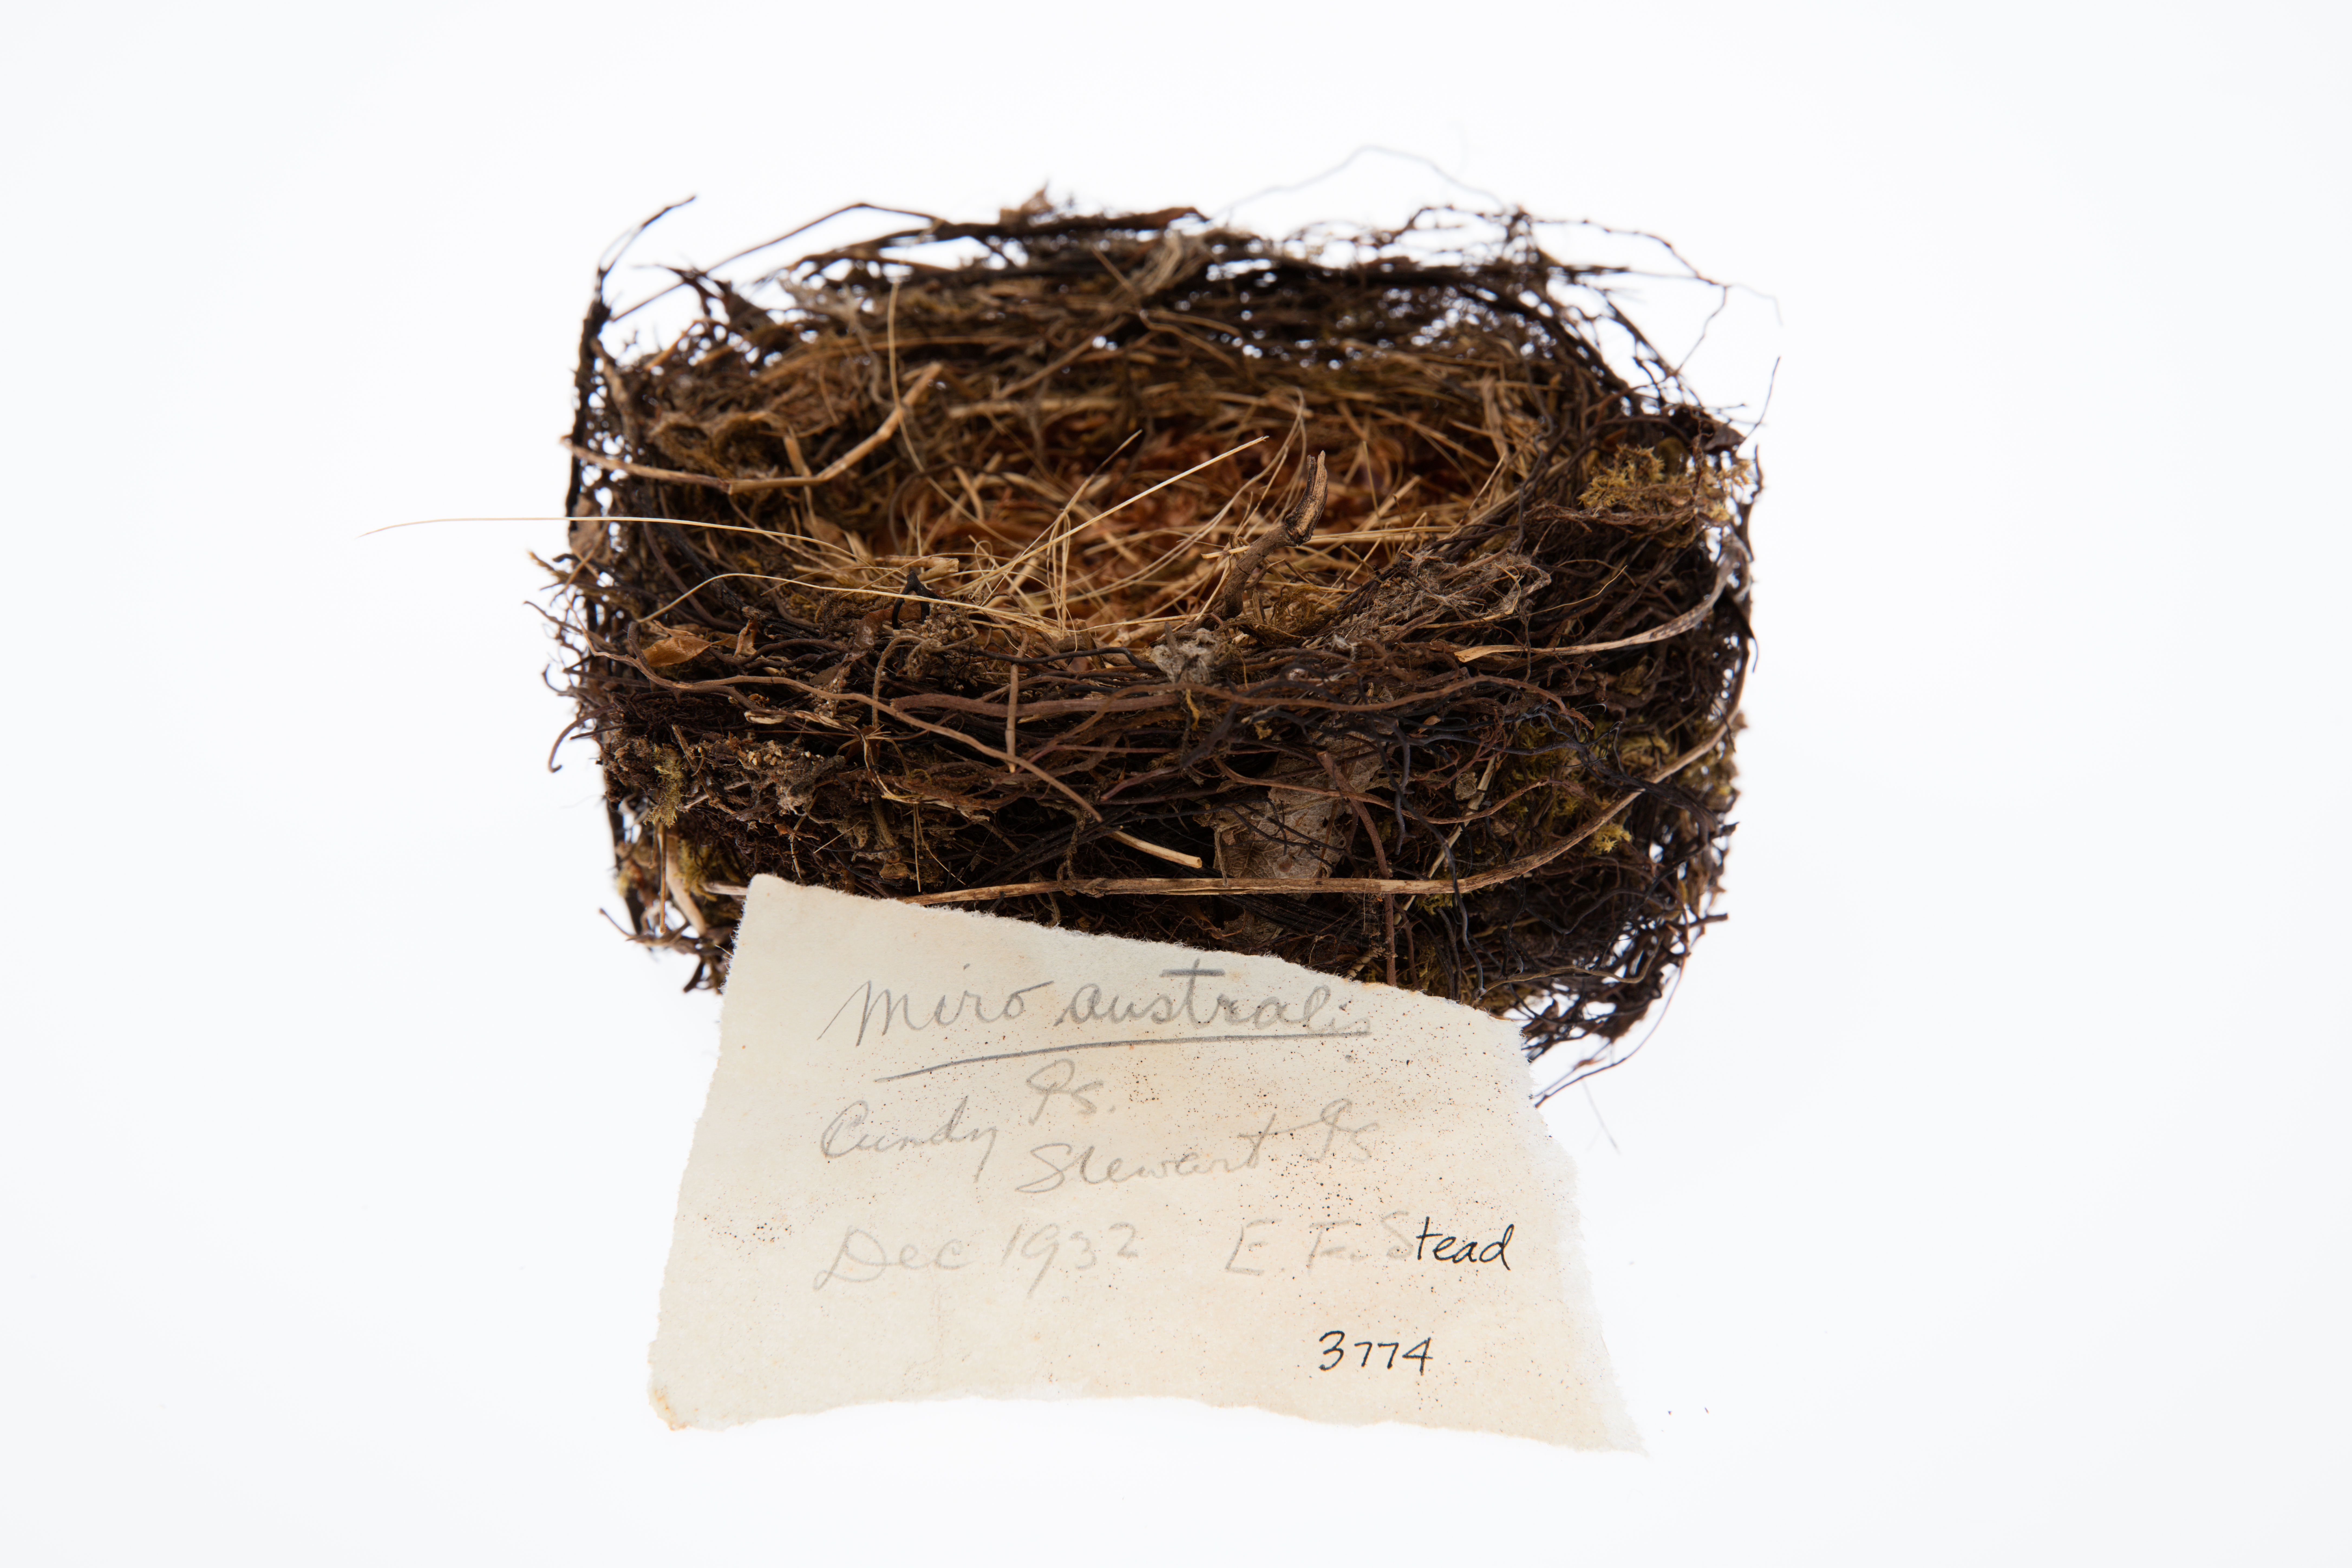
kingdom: Animalia
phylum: Chordata
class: Aves
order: Passeriformes
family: Petroicidae
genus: Petroica
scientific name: Petroica australis
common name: New zealand robin
